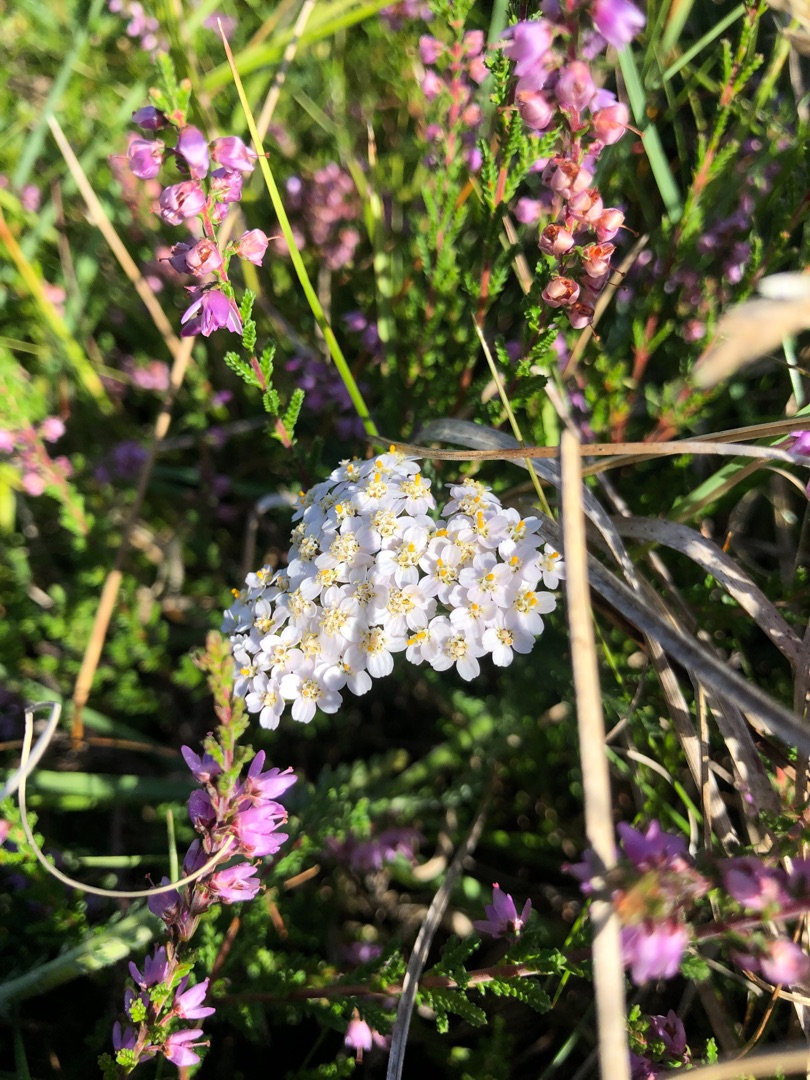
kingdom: Plantae
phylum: Tracheophyta
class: Magnoliopsida
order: Asterales
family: Asteraceae
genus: Achillea
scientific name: Achillea millefolium
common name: Almindelig røllike
